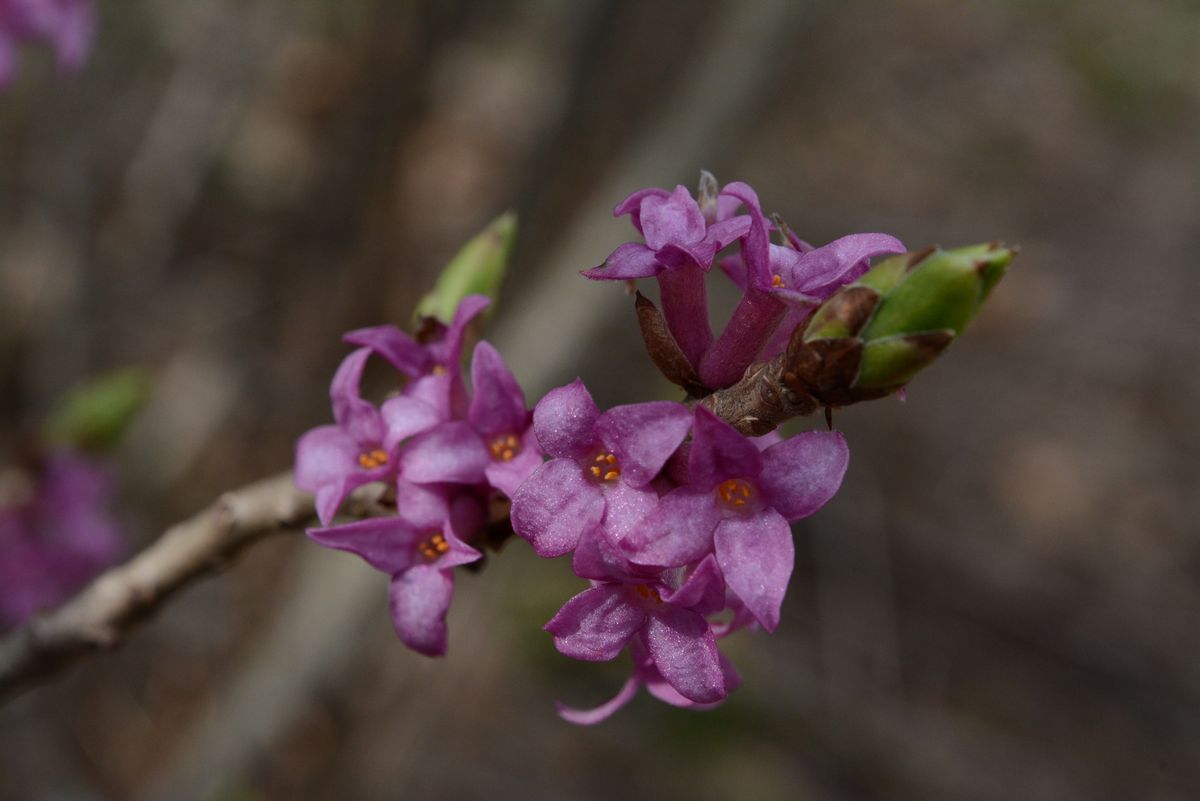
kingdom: Plantae
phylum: Tracheophyta
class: Magnoliopsida
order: Malvales
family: Thymelaeaceae
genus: Daphne
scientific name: Daphne mezereum
